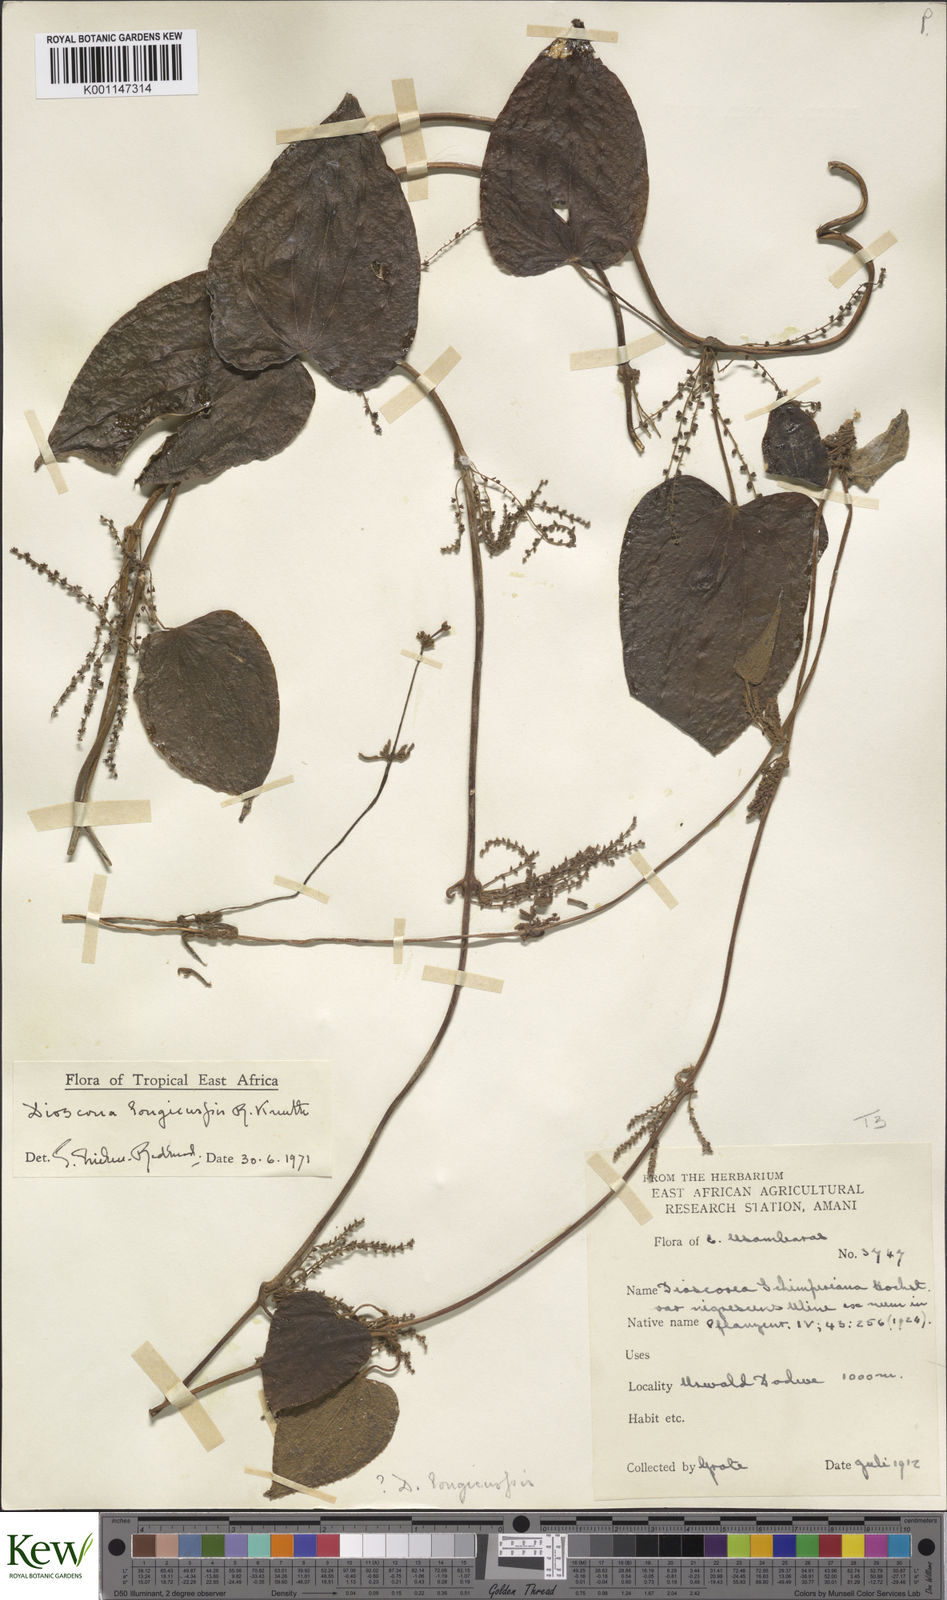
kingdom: Plantae
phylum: Tracheophyta
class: Liliopsida
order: Dioscoreales
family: Dioscoreaceae
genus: Dioscorea
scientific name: Dioscorea longicuspis
